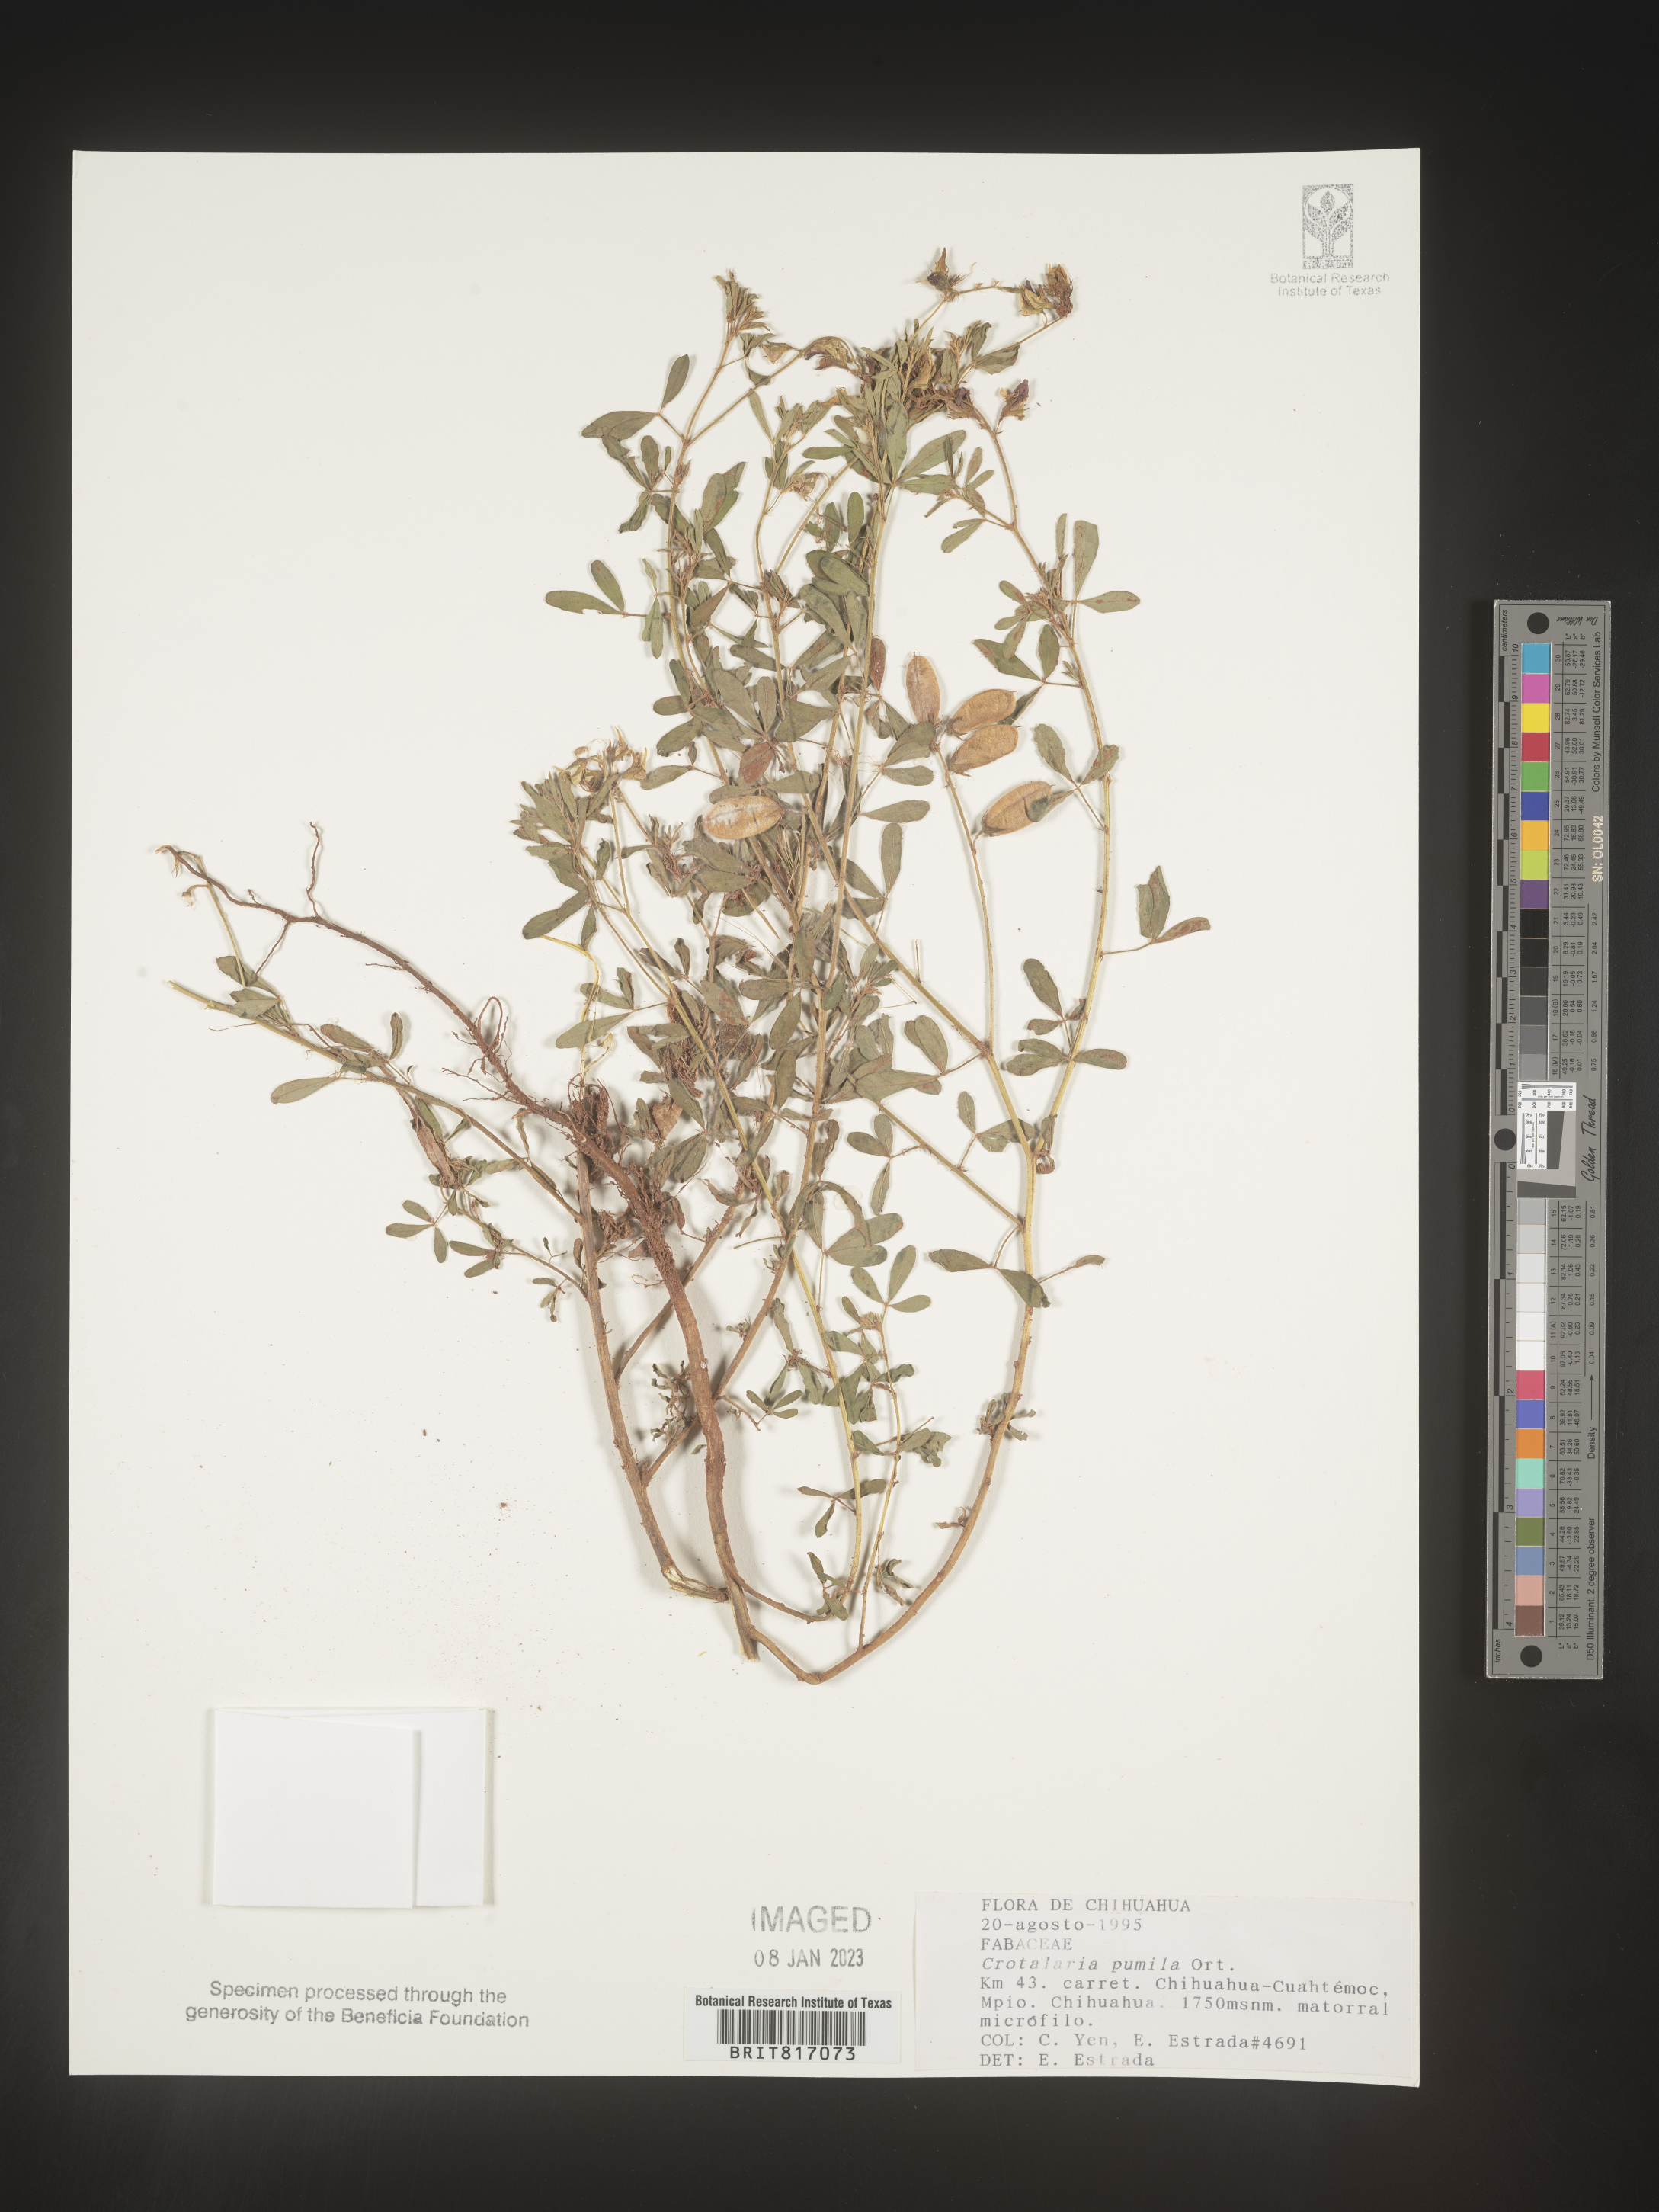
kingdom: Plantae
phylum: Tracheophyta
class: Magnoliopsida
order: Fabales
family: Fabaceae
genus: Crotalaria
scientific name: Crotalaria
